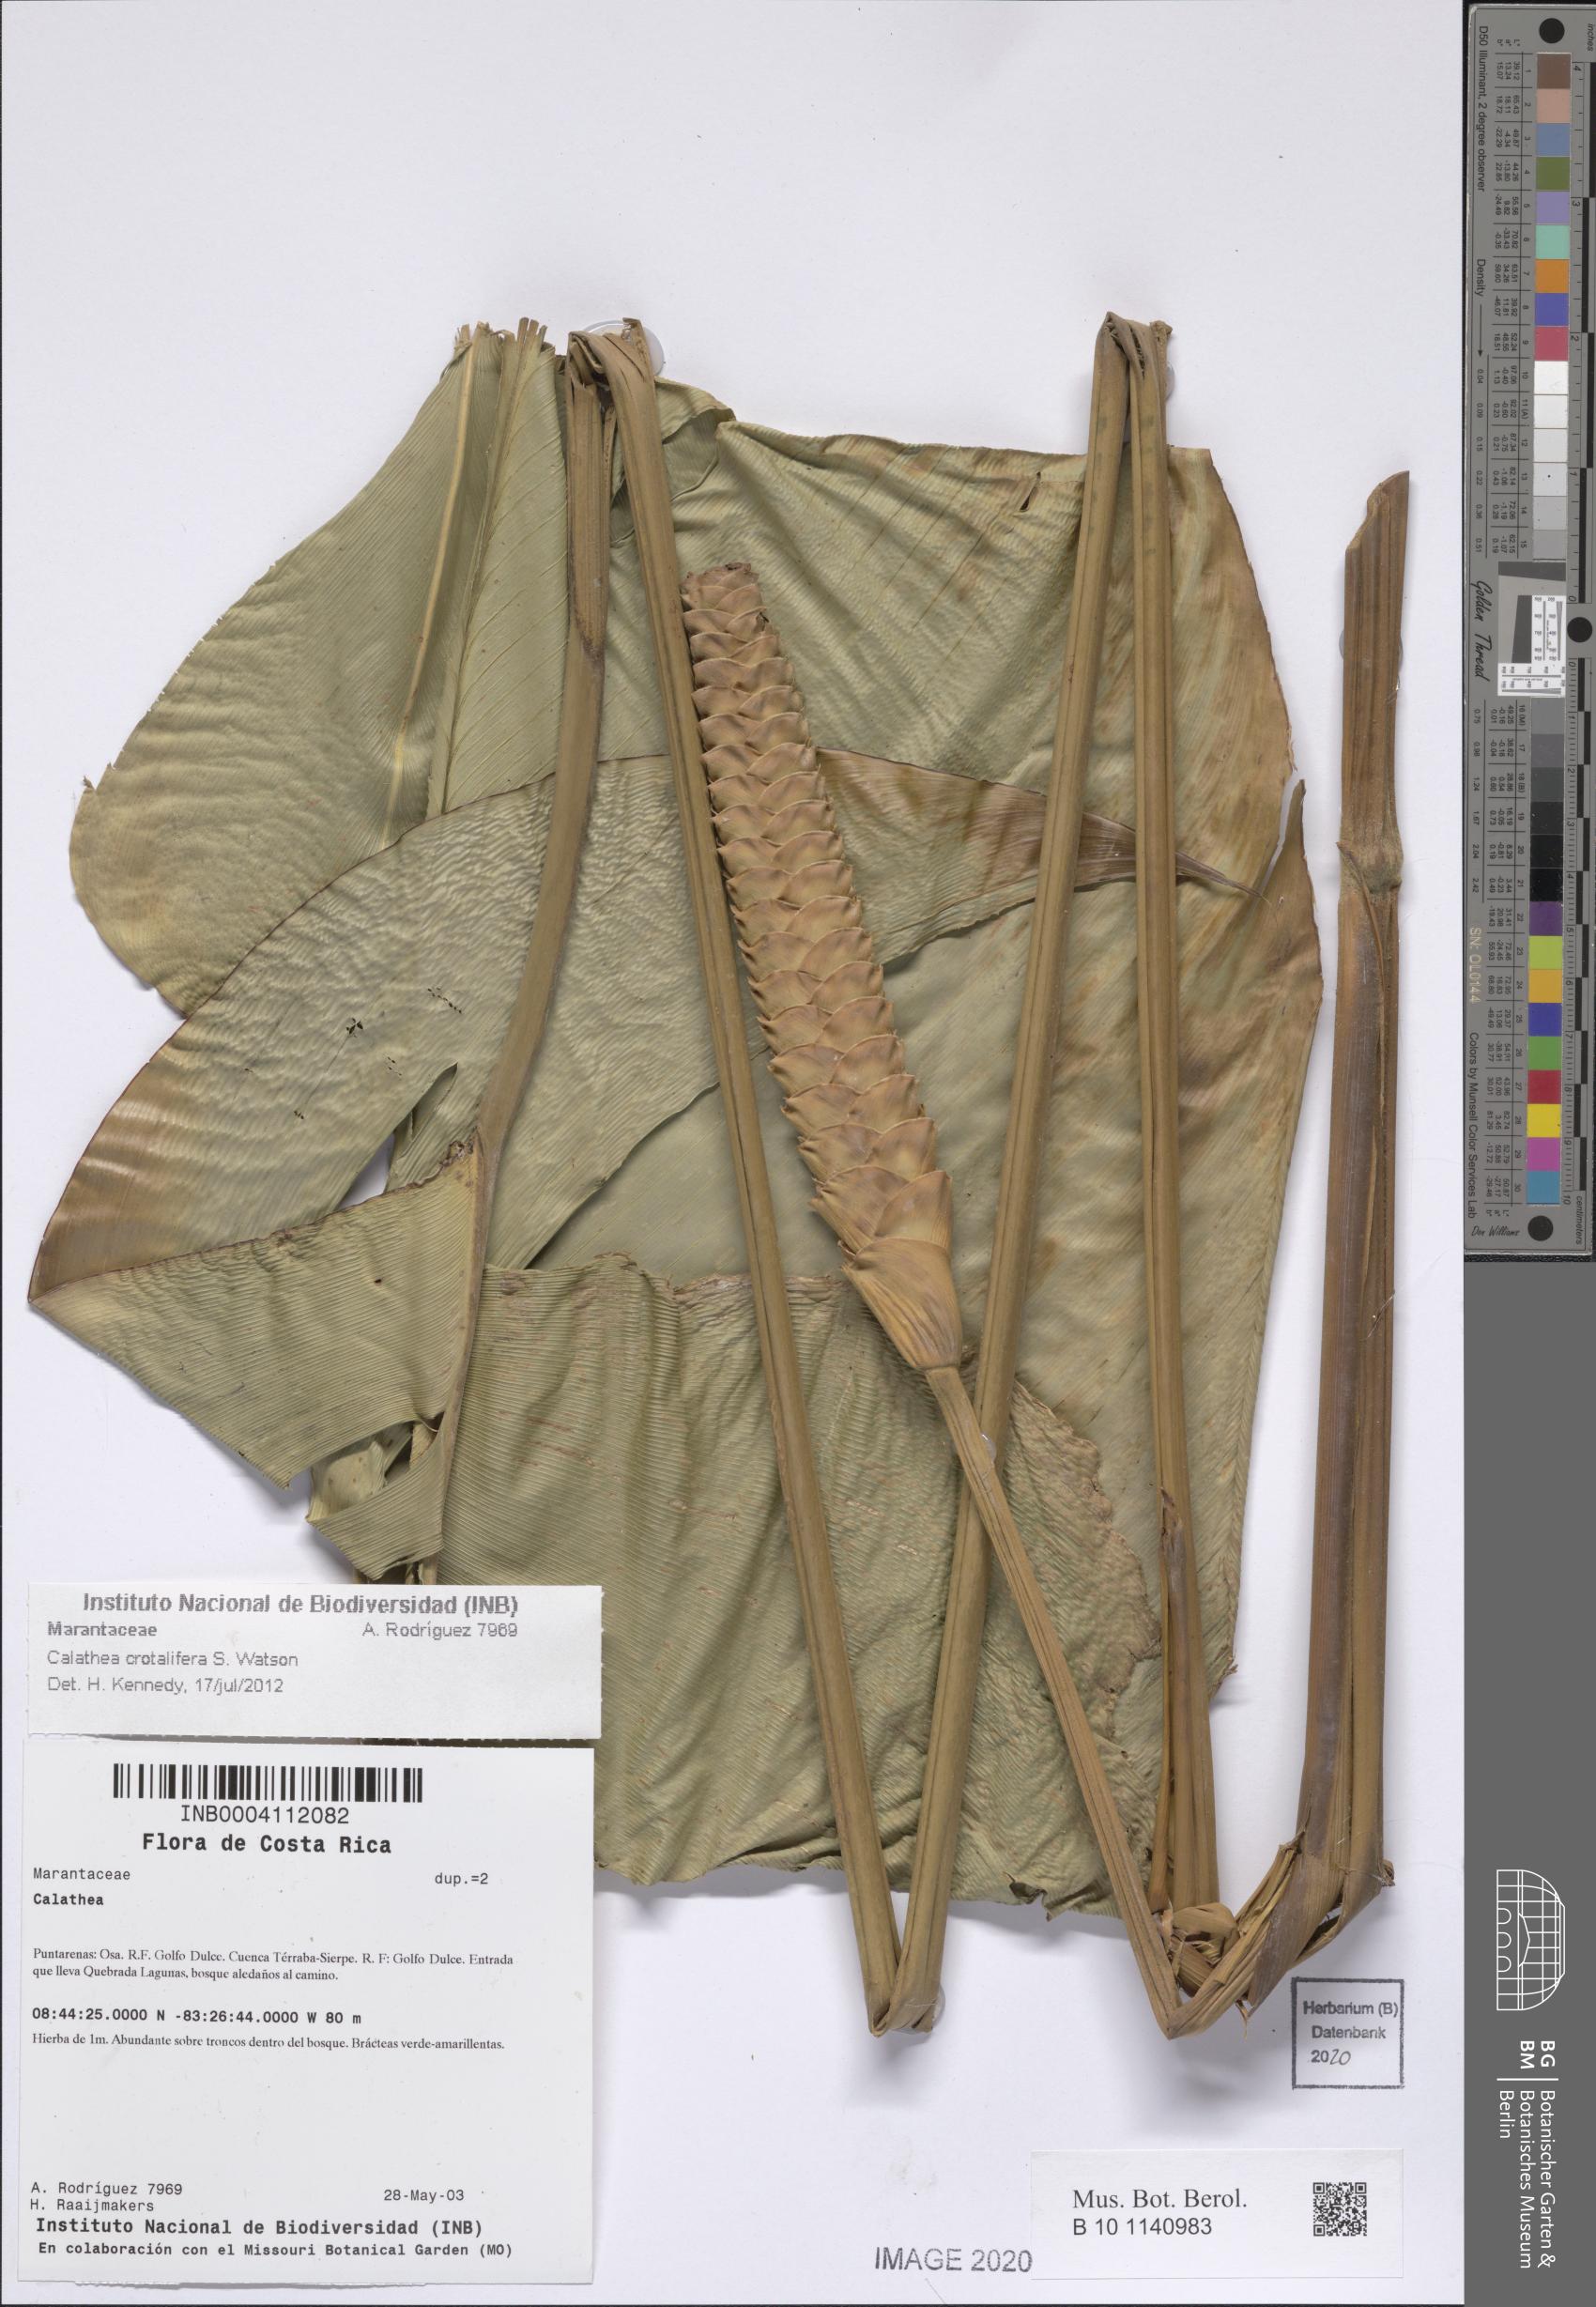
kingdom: Plantae
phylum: Tracheophyta
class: Liliopsida
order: Zingiberales
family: Marantaceae
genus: Calathea
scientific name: Calathea crotalifera
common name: Rattlesnake plant
